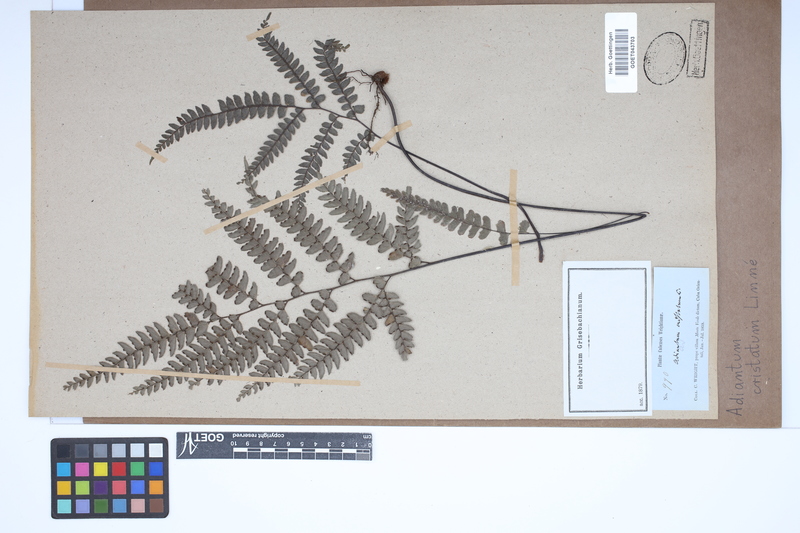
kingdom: Plantae
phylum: Tracheophyta
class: Polypodiopsida
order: Polypodiales
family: Pteridaceae
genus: Adiantum
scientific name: Adiantum pyramidale
